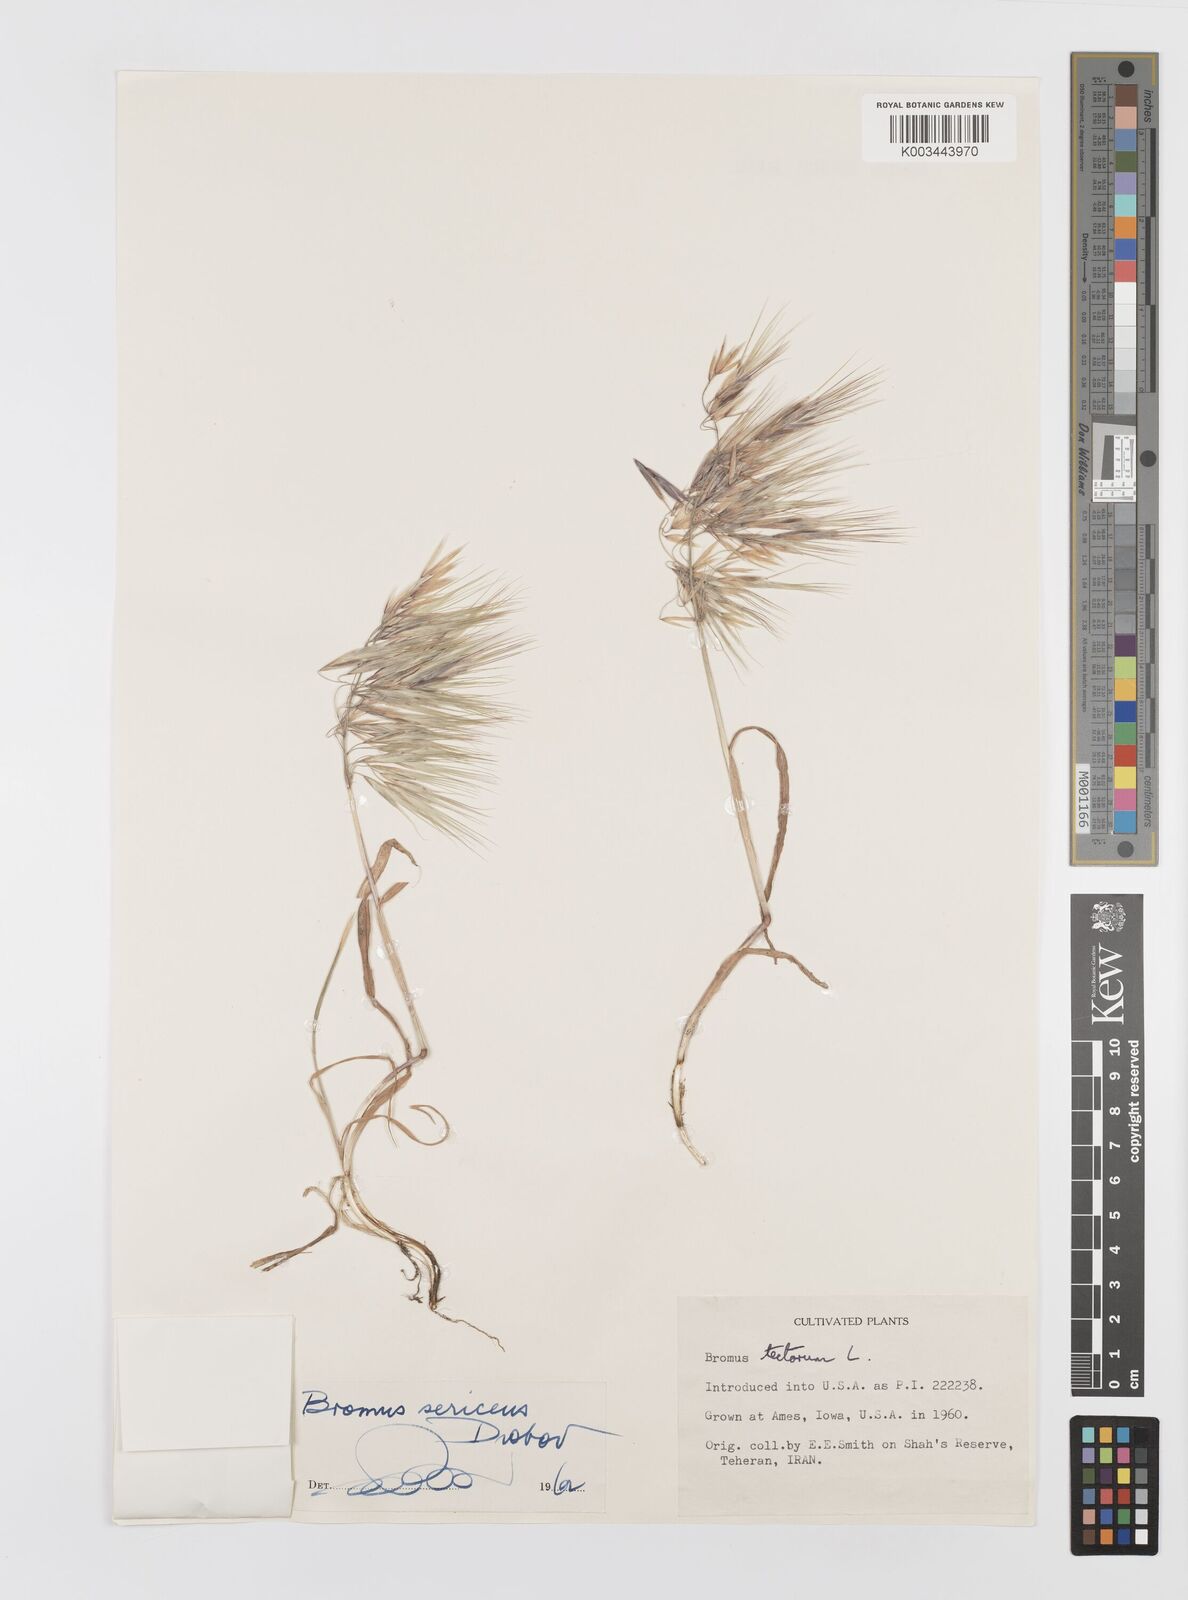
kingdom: Plantae
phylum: Tracheophyta
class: Liliopsida
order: Poales
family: Poaceae
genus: Bromus
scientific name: Bromus moeszii
